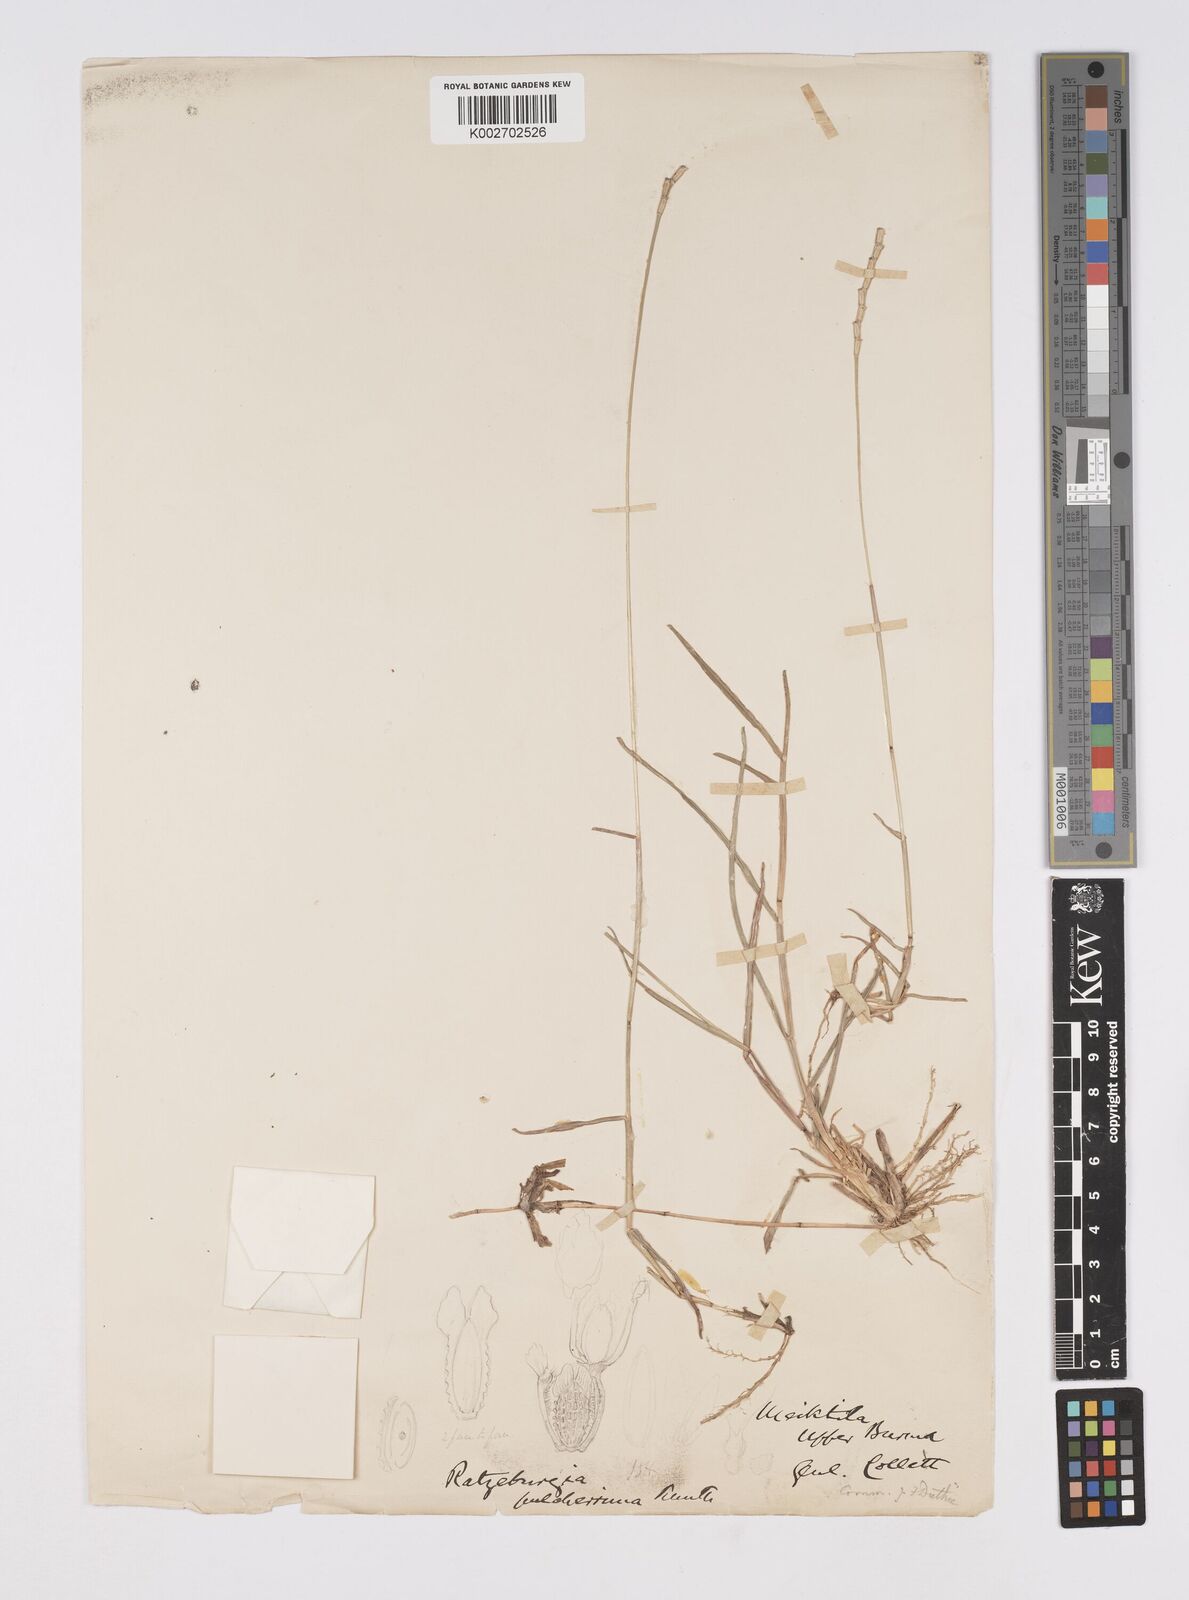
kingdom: Plantae
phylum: Tracheophyta
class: Liliopsida
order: Poales
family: Poaceae
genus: Ratzeburgia
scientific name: Ratzeburgia pulcherrima
